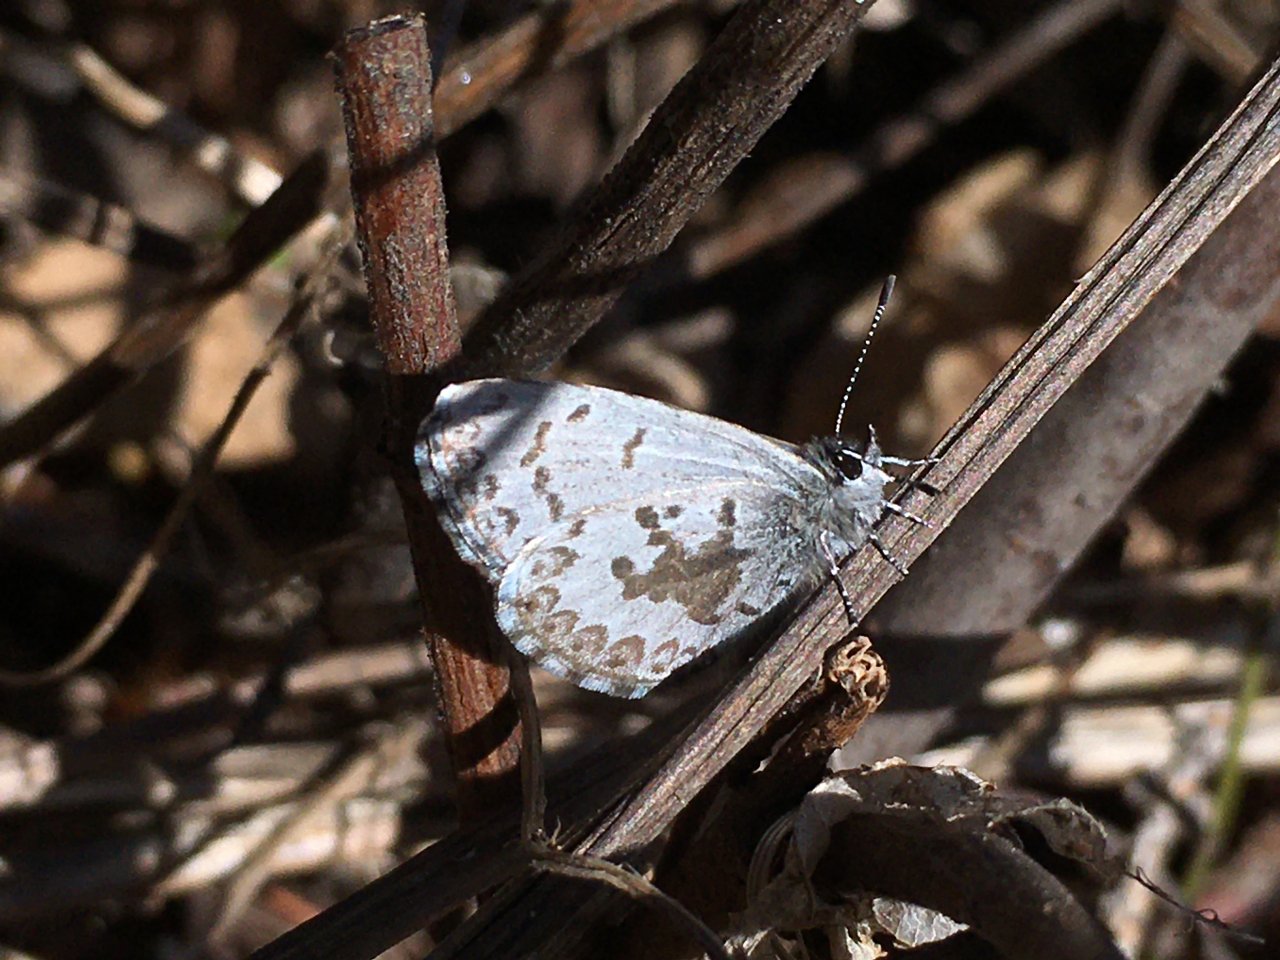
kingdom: Animalia
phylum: Arthropoda
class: Insecta
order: Lepidoptera
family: Lycaenidae
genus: Celastrina
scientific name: Celastrina
